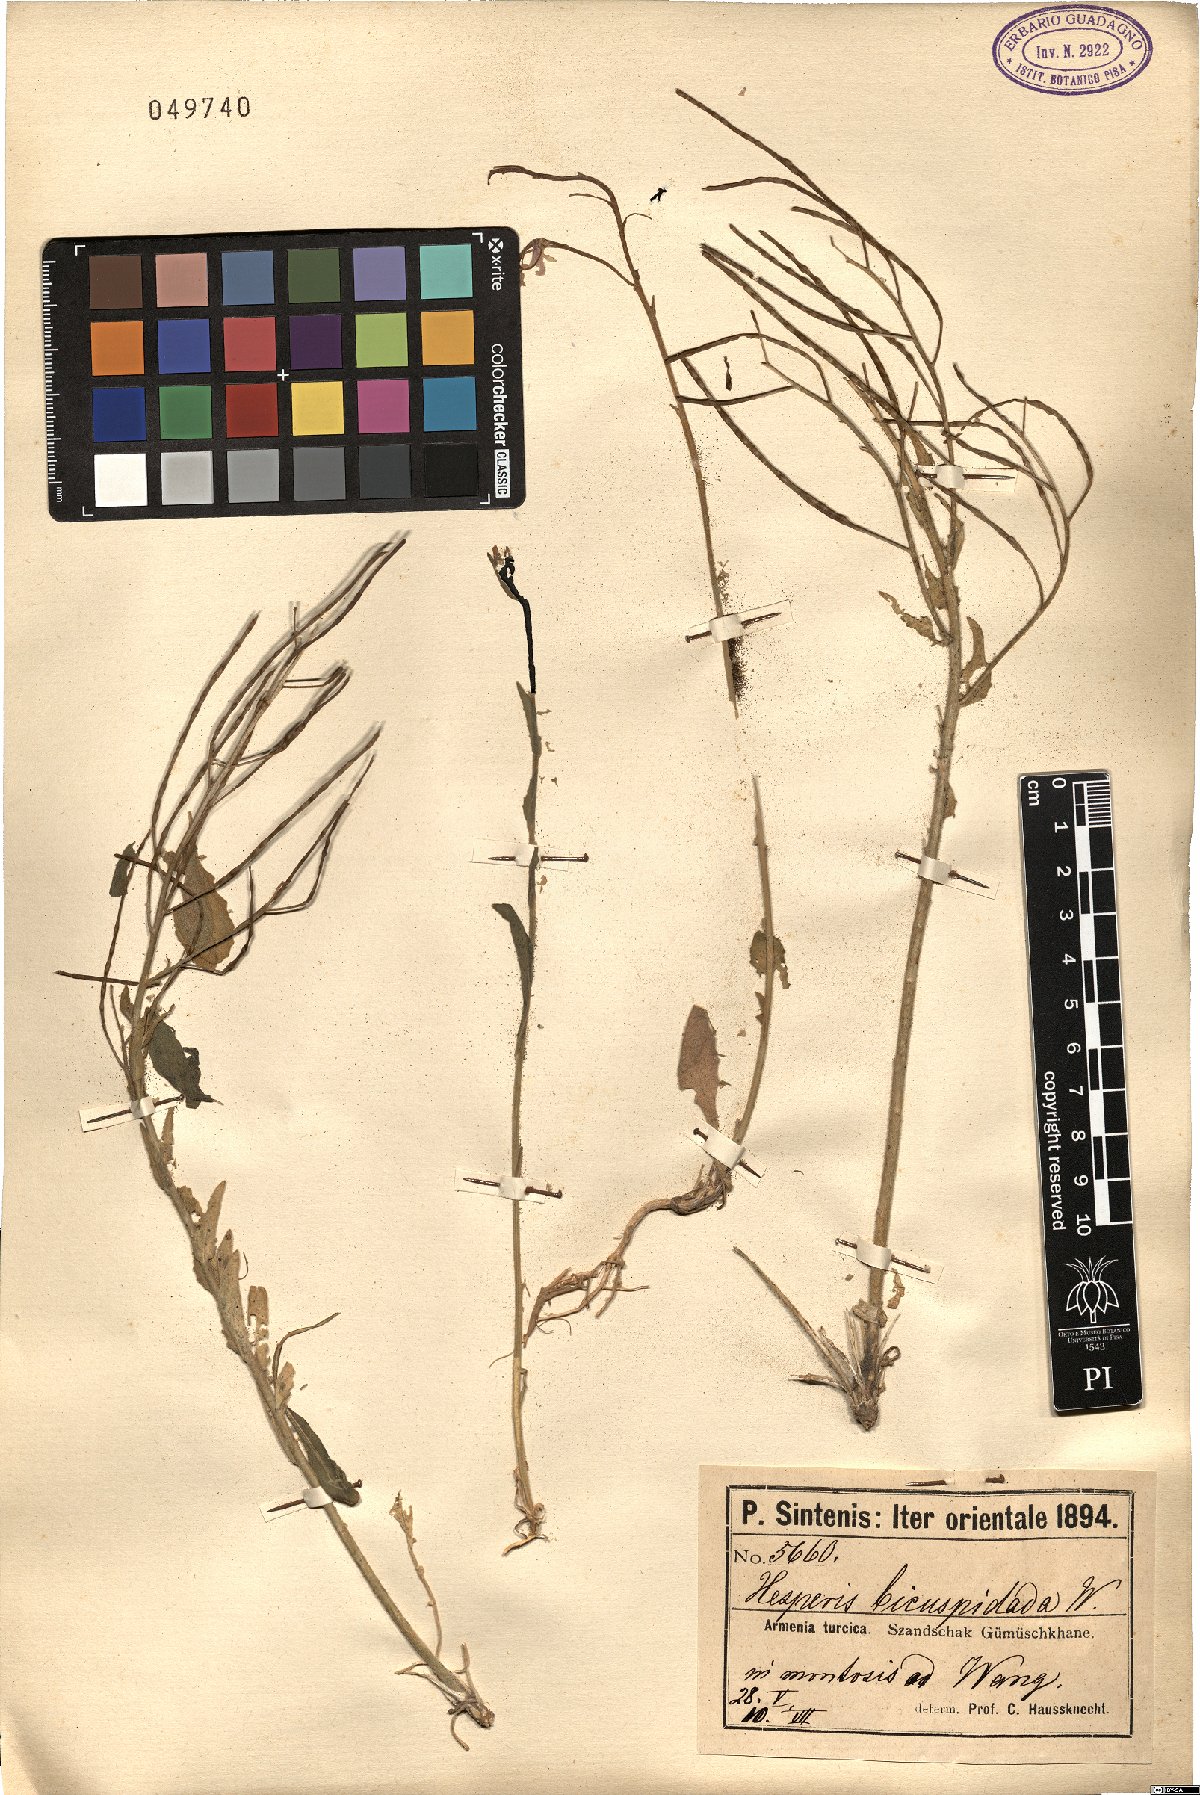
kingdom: Plantae
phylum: Tracheophyta
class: Magnoliopsida
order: Brassicales
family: Brassicaceae
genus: Hesperis
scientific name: Hesperis bicuspidata
